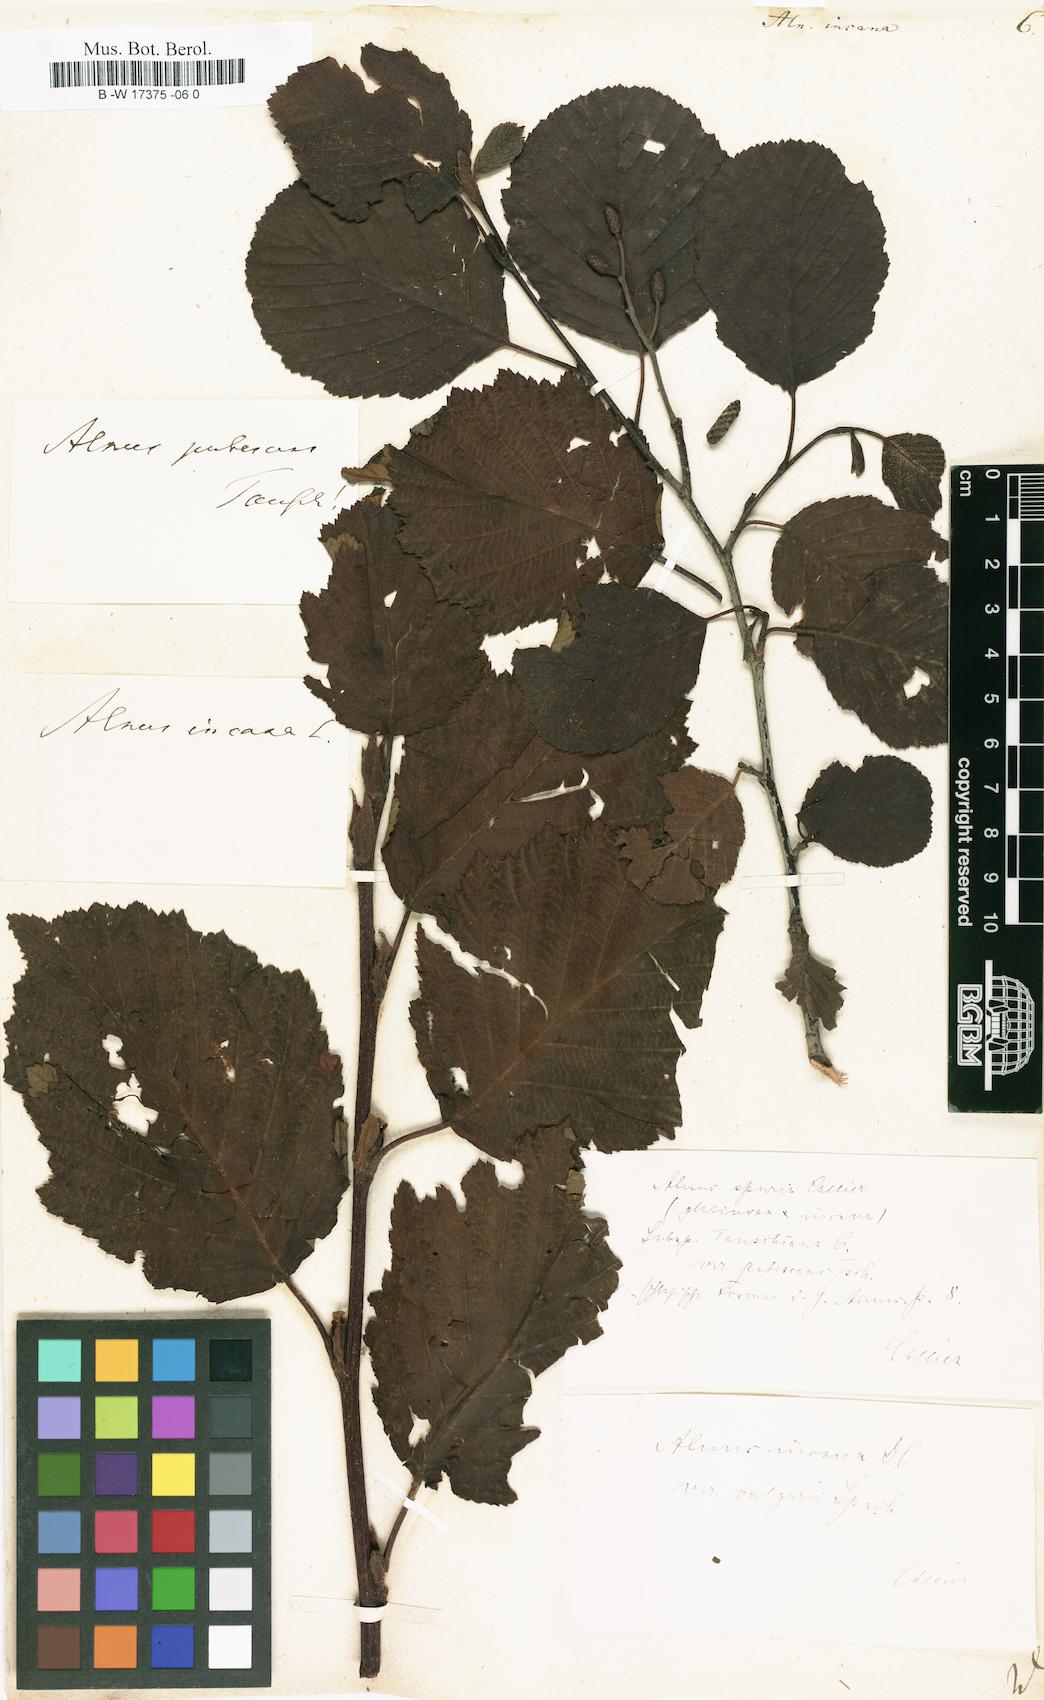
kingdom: Plantae
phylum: Tracheophyta
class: Magnoliopsida
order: Fagales
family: Betulaceae
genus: Alnus
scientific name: Alnus incana
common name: Grey alder
